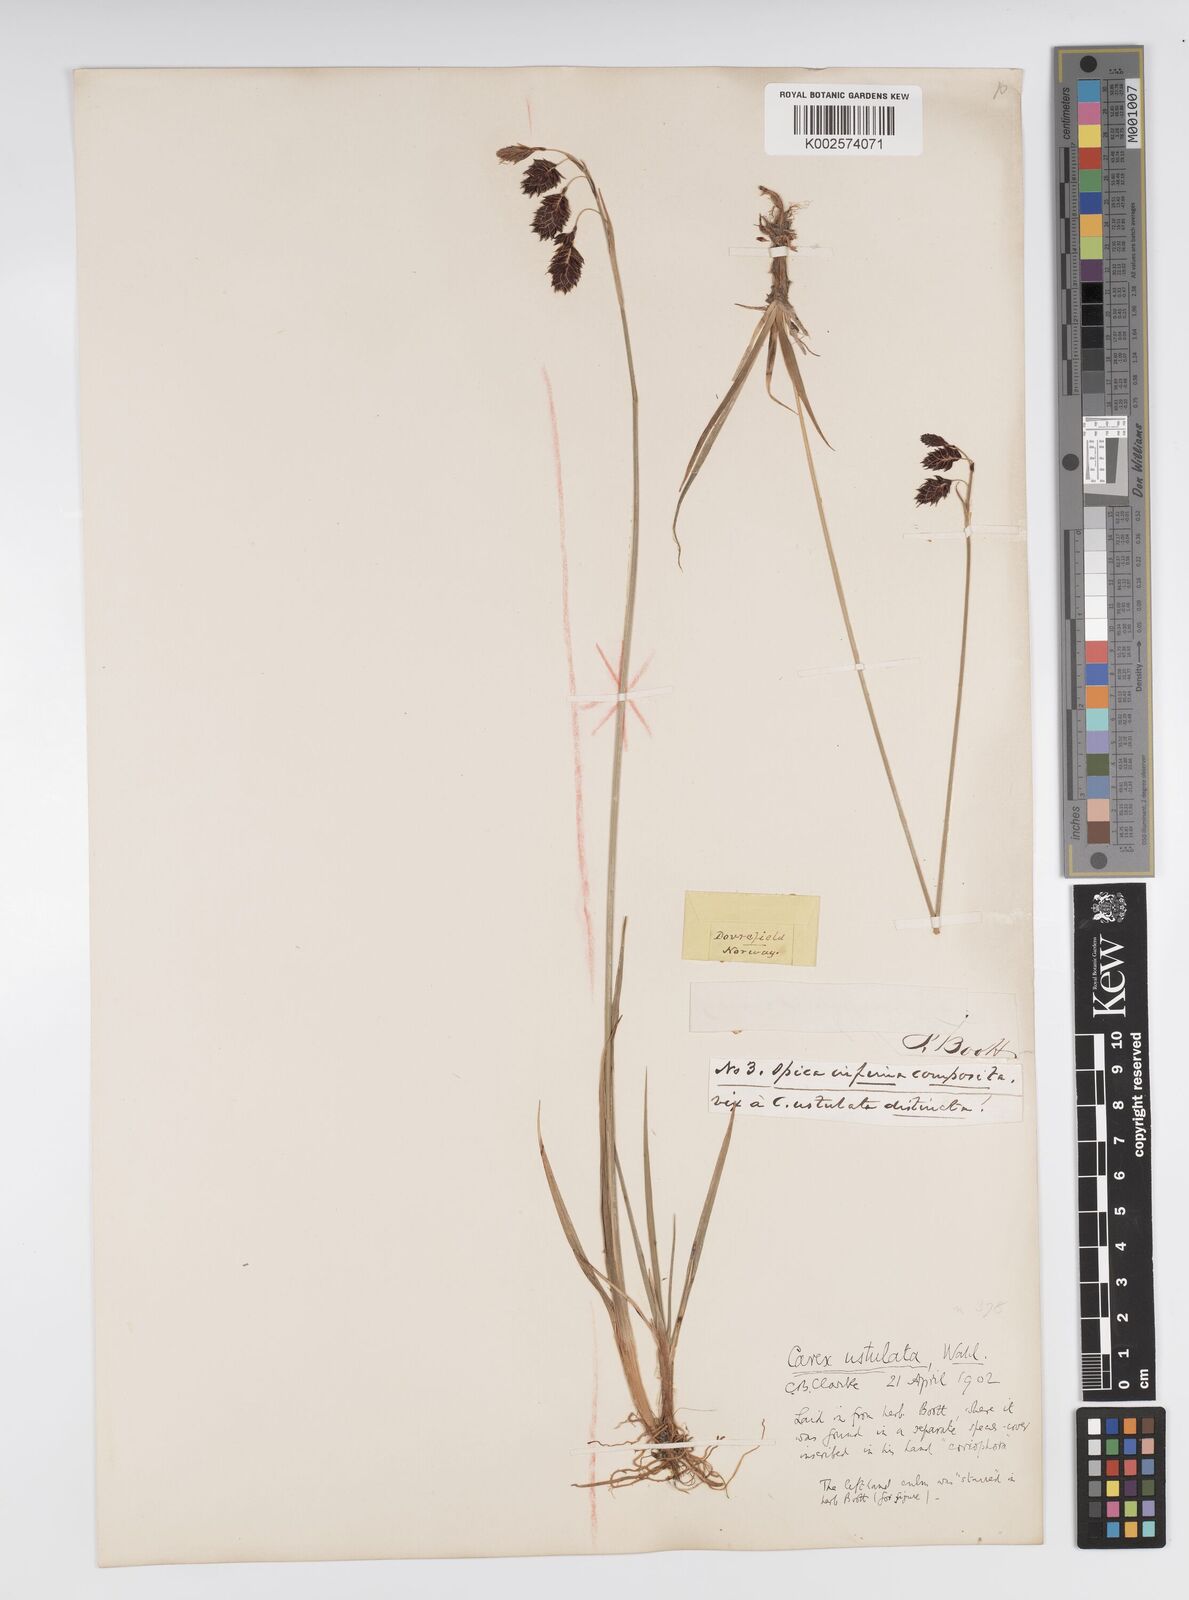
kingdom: Plantae
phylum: Tracheophyta
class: Liliopsida
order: Poales
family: Cyperaceae
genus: Carex
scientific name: Carex atrofusca
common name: Scorched alpine-sedge
